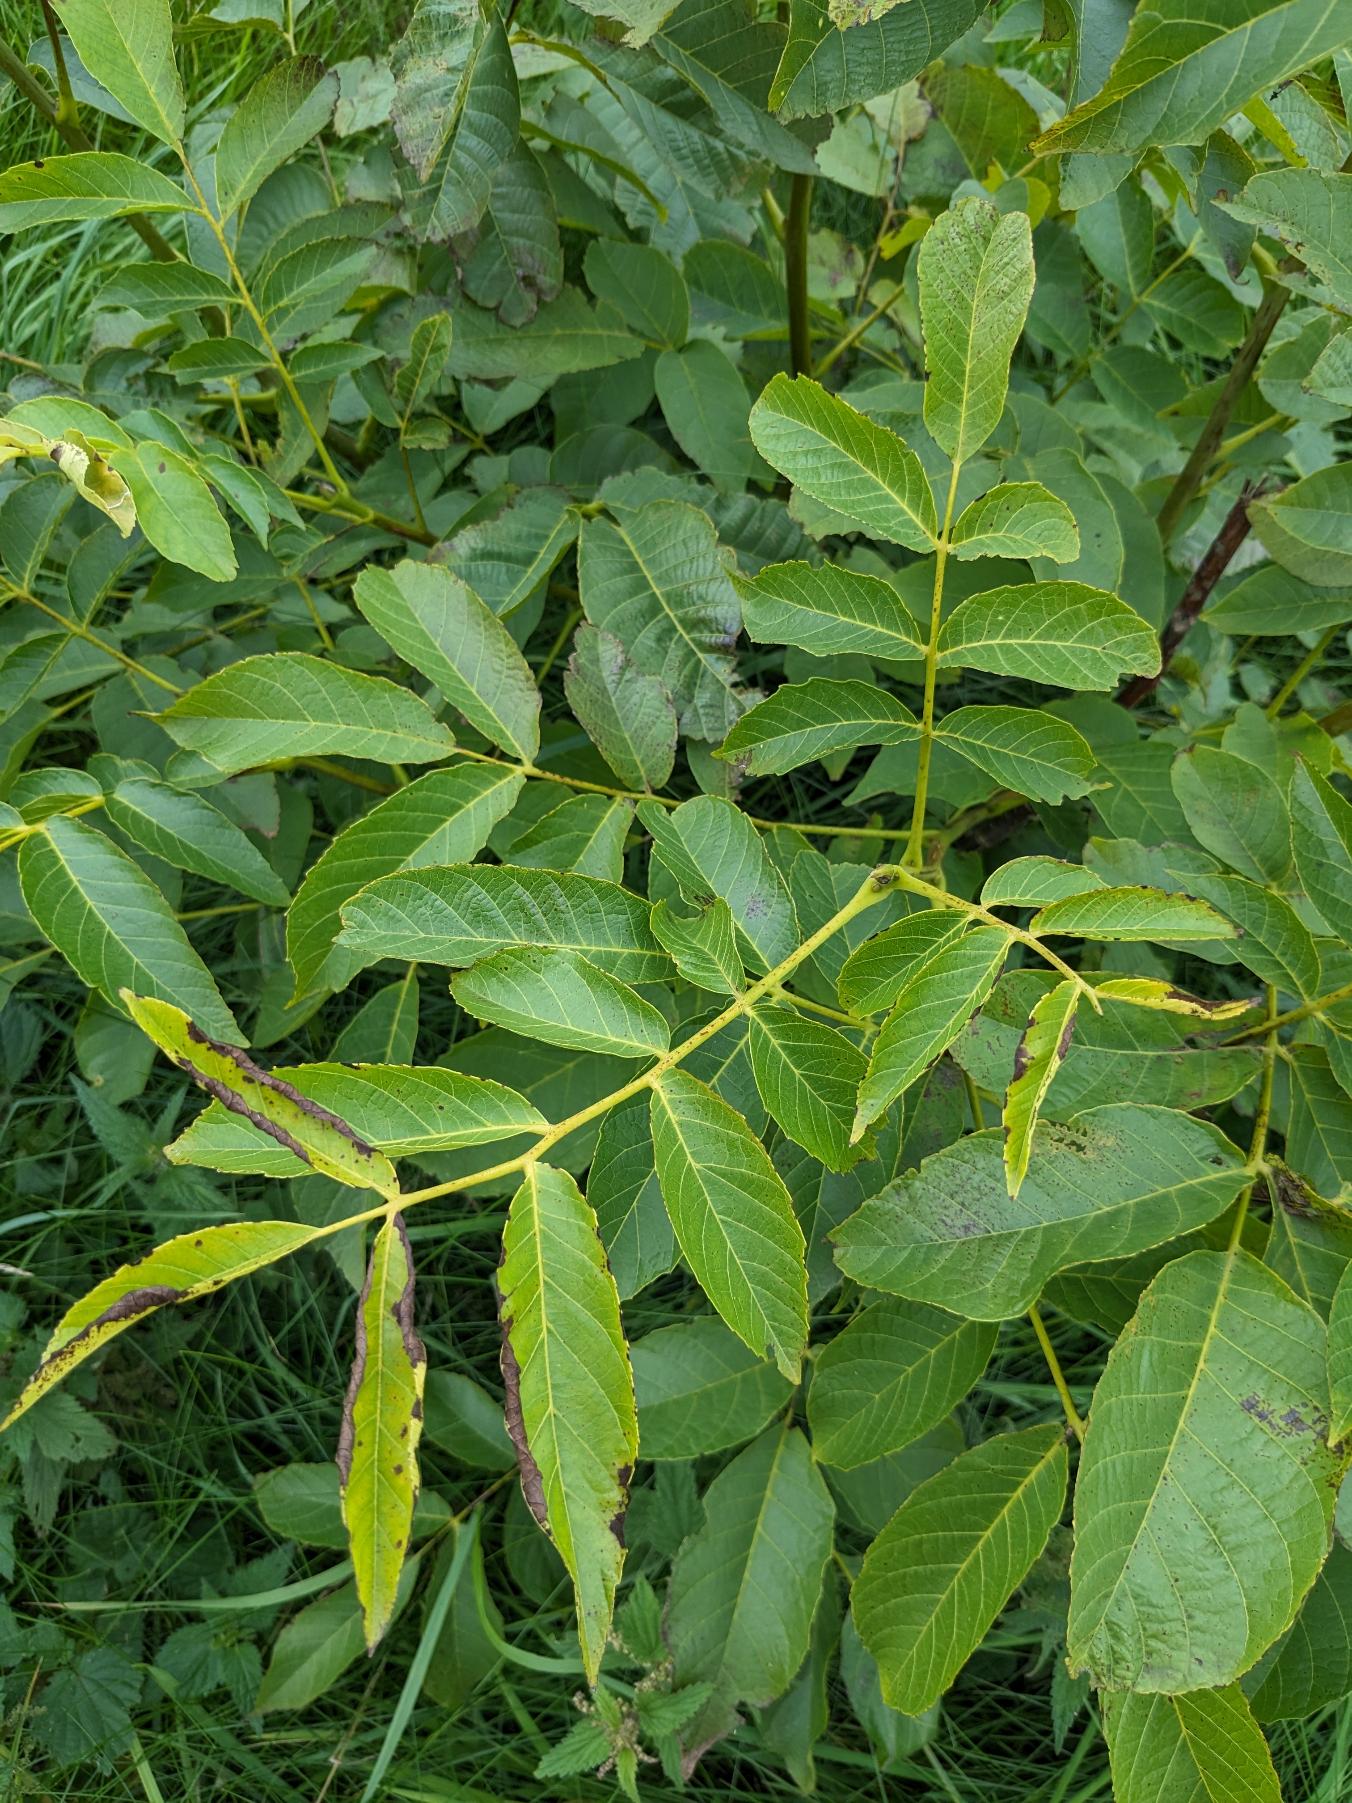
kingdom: Plantae
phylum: Tracheophyta
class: Magnoliopsida
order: Fagales
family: Juglandaceae
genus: Juglans
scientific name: Juglans regia
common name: Almindelig valnød
